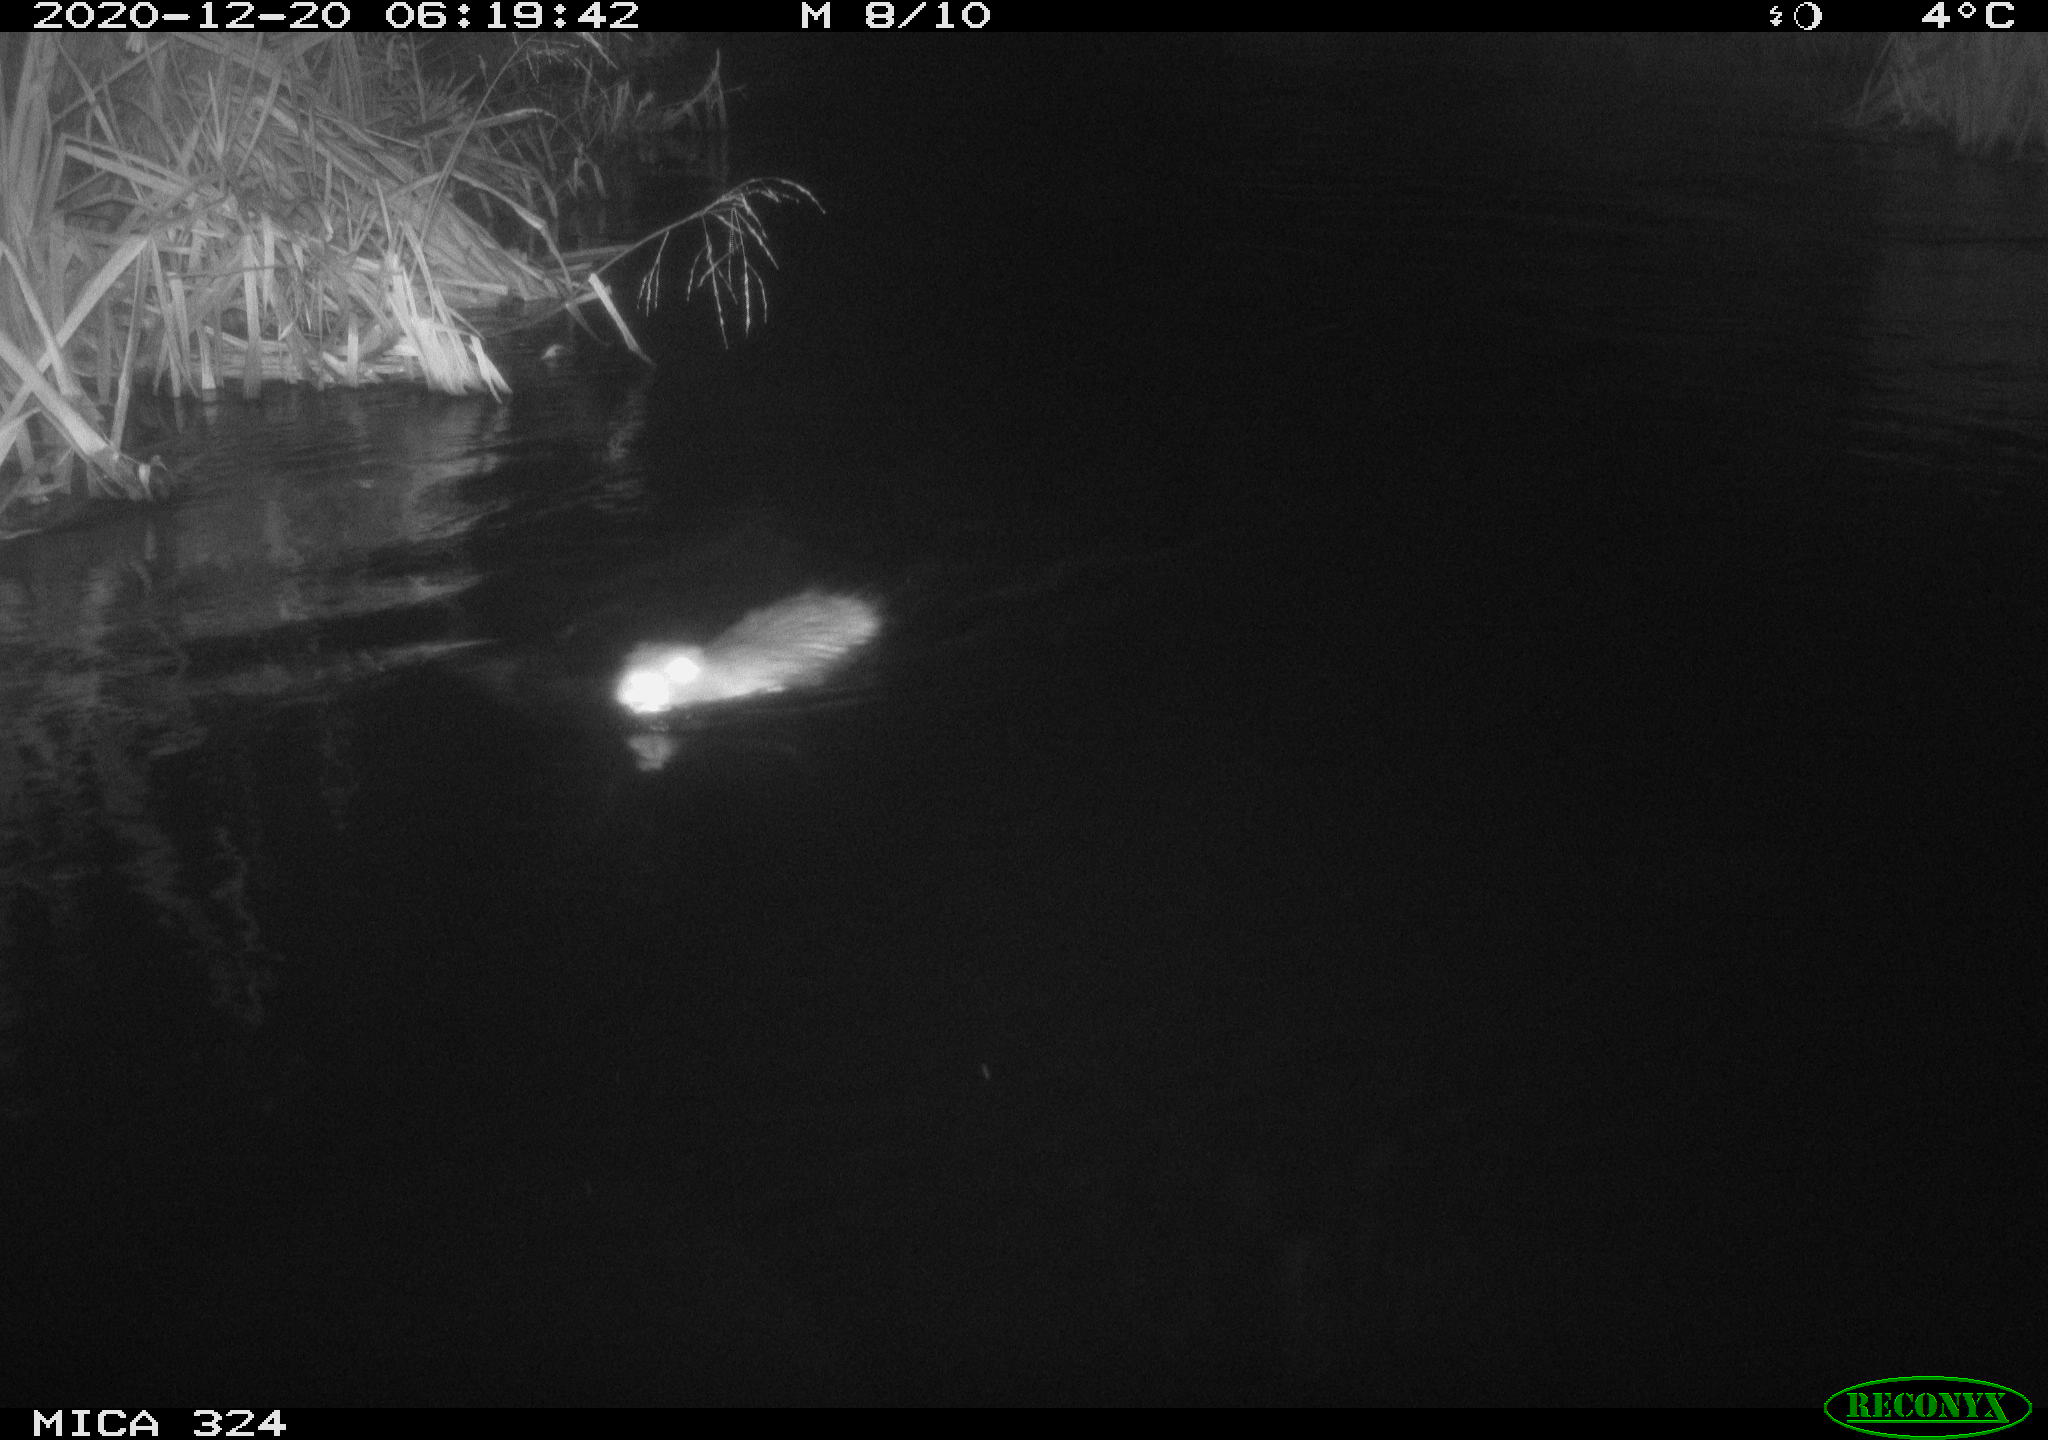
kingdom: Animalia
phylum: Chordata
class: Mammalia
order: Rodentia
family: Myocastoridae
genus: Myocastor
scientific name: Myocastor coypus
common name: Coypu
